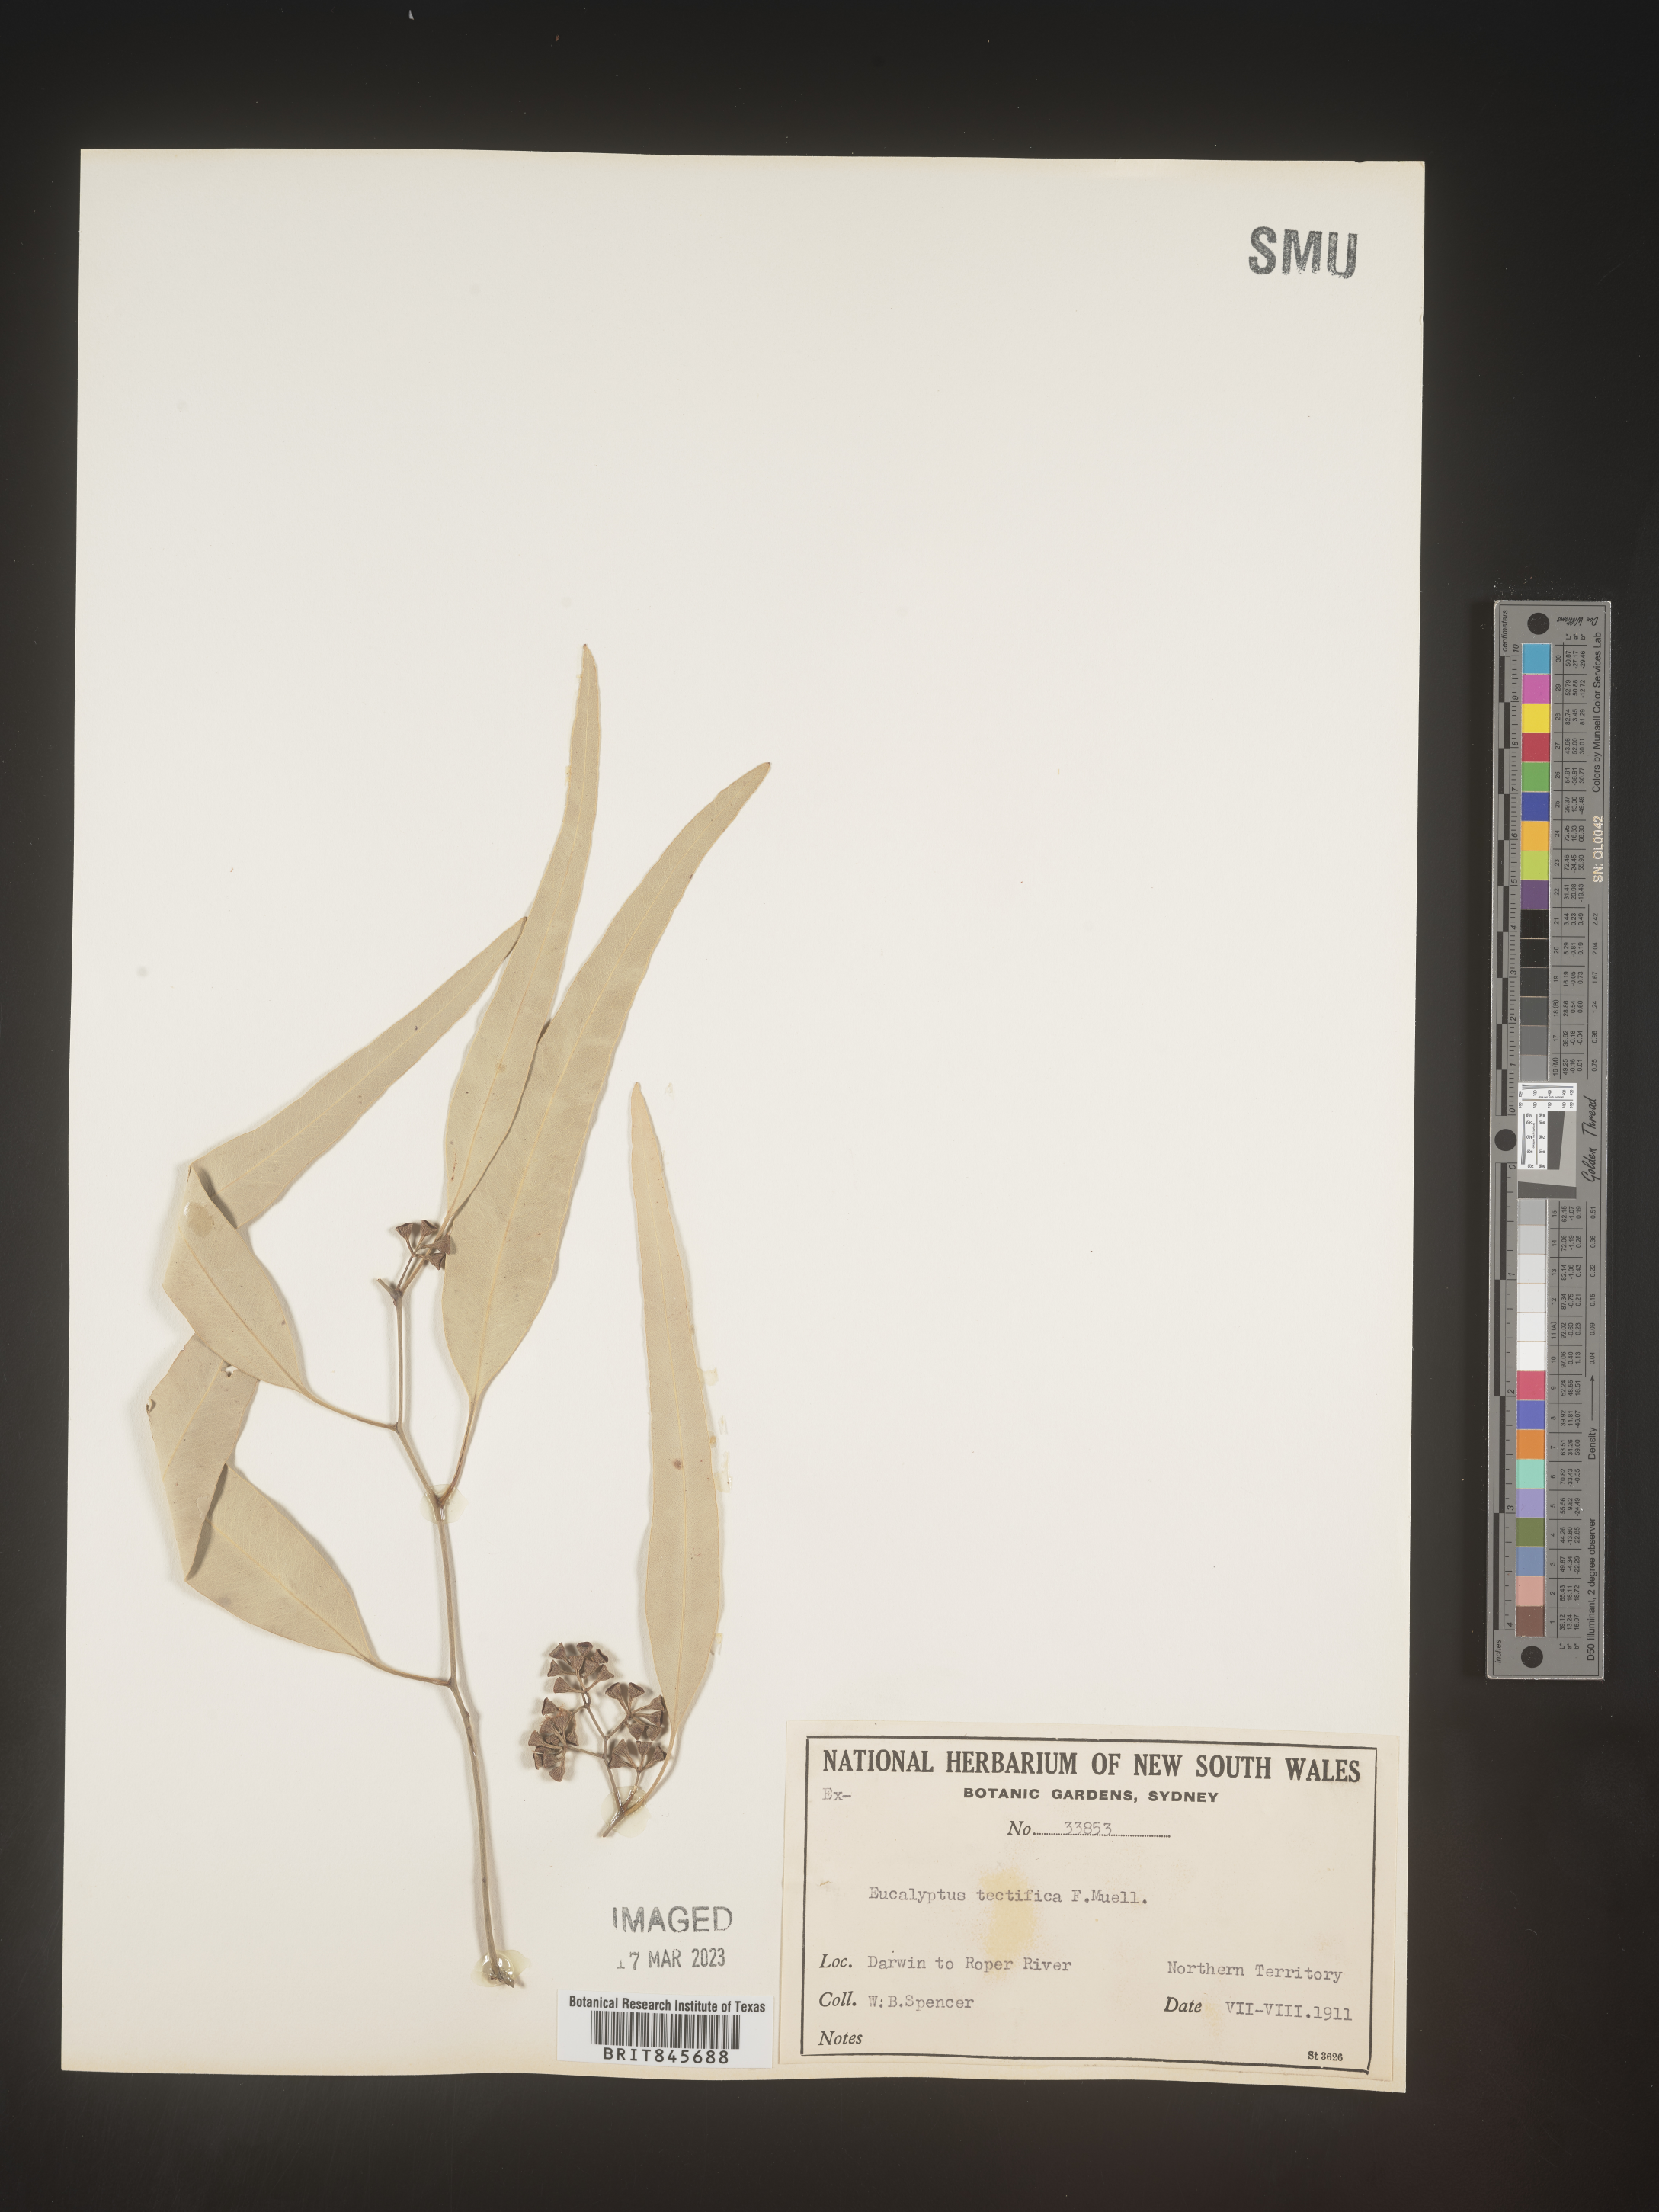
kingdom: Plantae
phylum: Tracheophyta
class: Magnoliopsida
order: Myrtales
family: Myrtaceae
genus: Eucalyptus
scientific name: Eucalyptus
